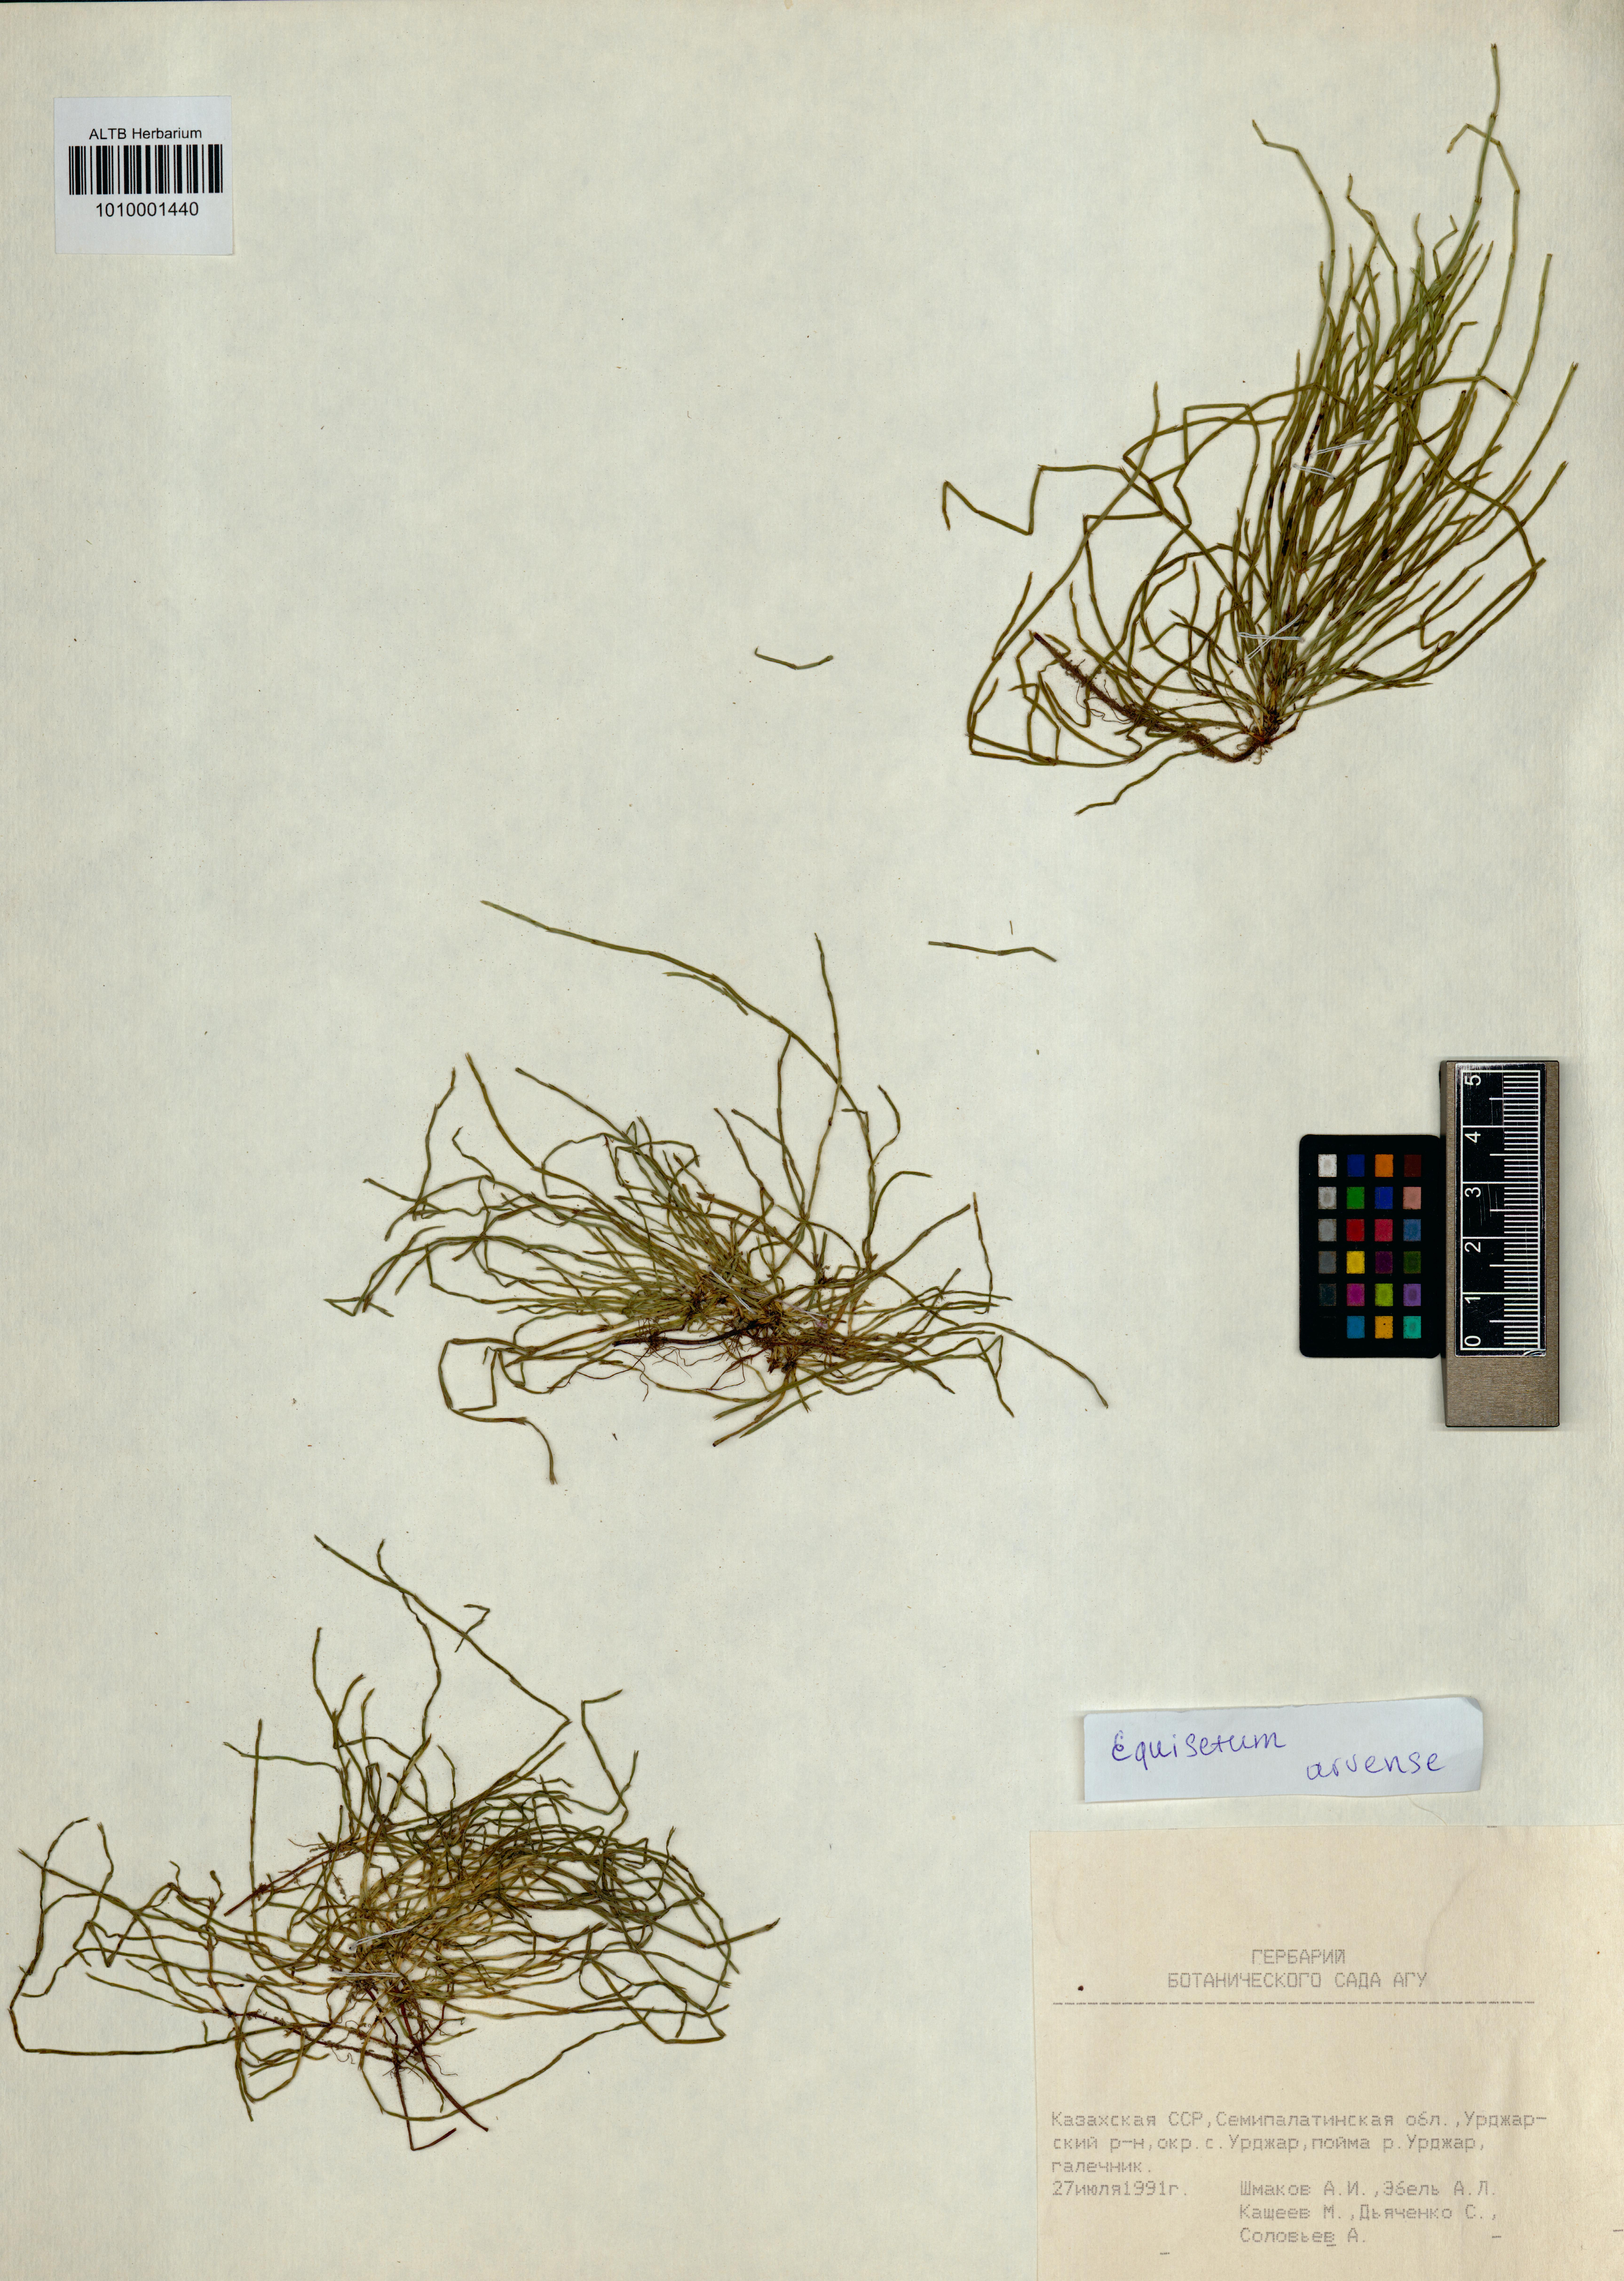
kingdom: Plantae
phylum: Tracheophyta
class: Polypodiopsida
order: Equisetales
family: Equisetaceae
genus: Equisetum
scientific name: Equisetum arvense
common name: Field horsetail
